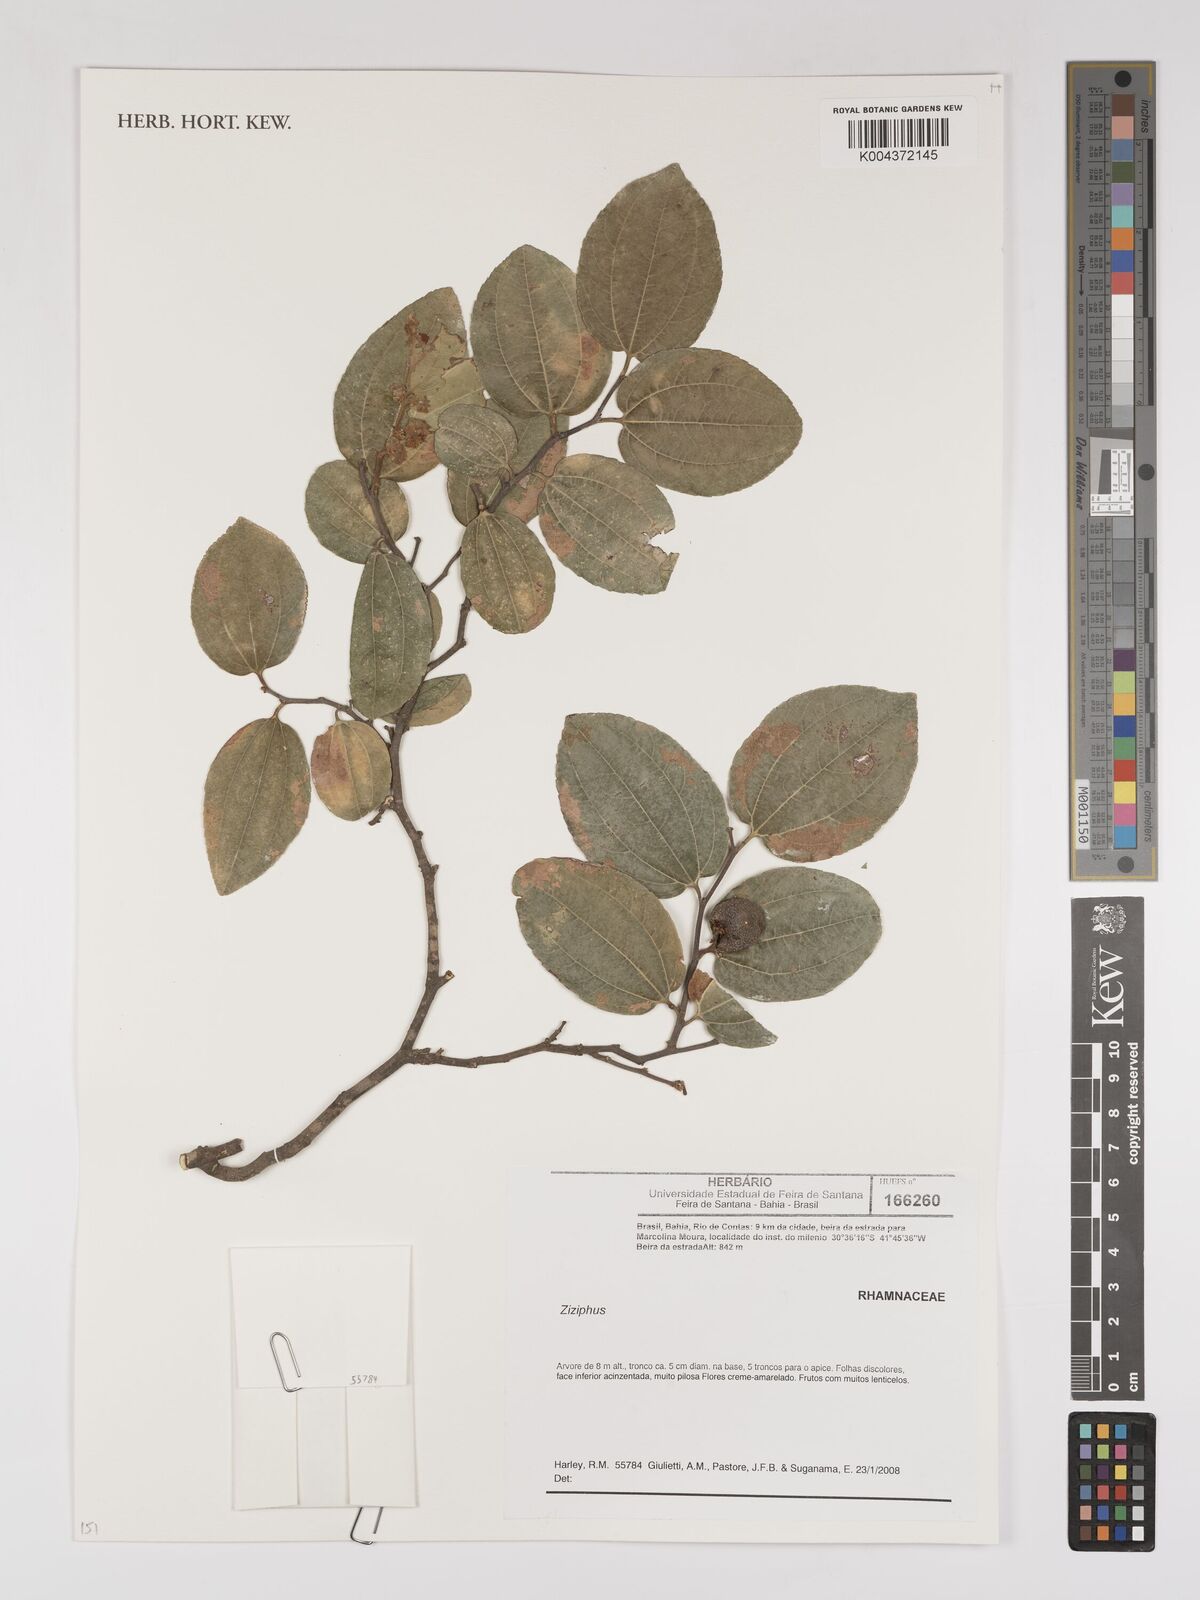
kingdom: Plantae
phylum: Tracheophyta
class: Magnoliopsida
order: Rosales
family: Rhamnaceae
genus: Ziziphus
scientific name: Ziziphus
